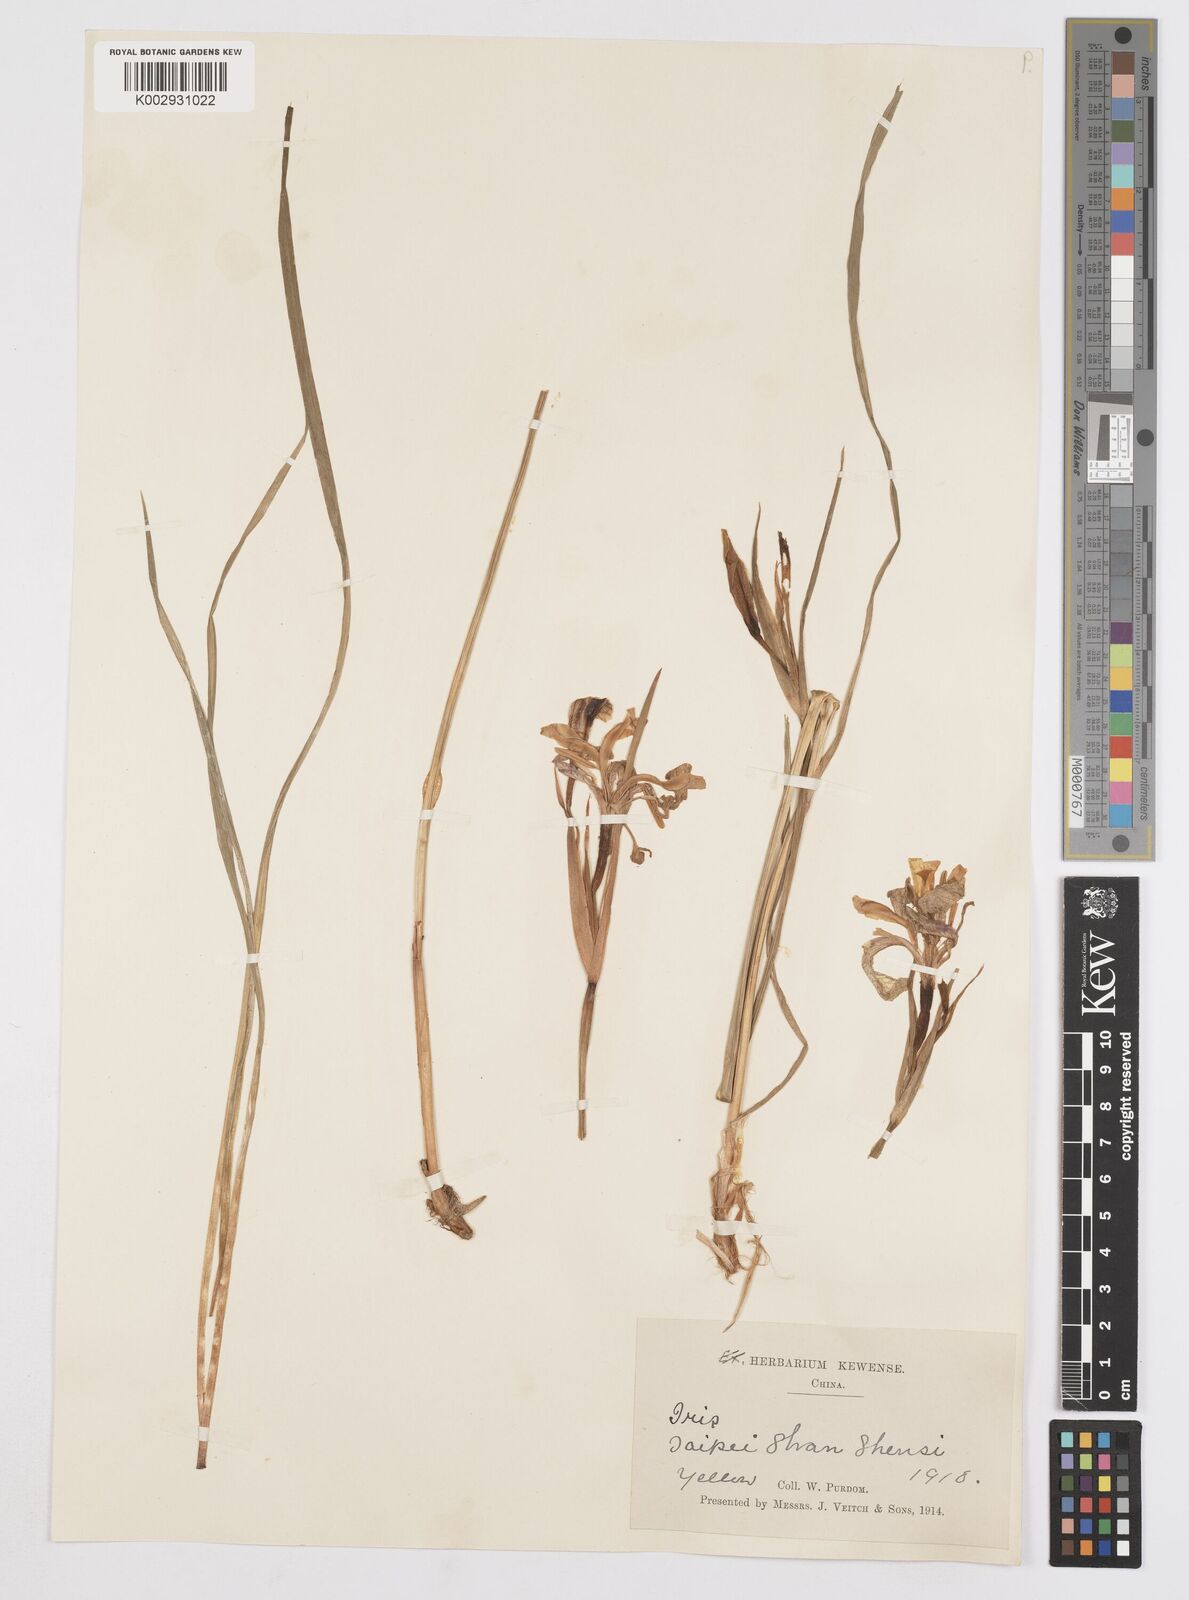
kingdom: Plantae
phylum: Tracheophyta
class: Liliopsida
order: Asparagales
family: Iridaceae
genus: Iris
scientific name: Iris
